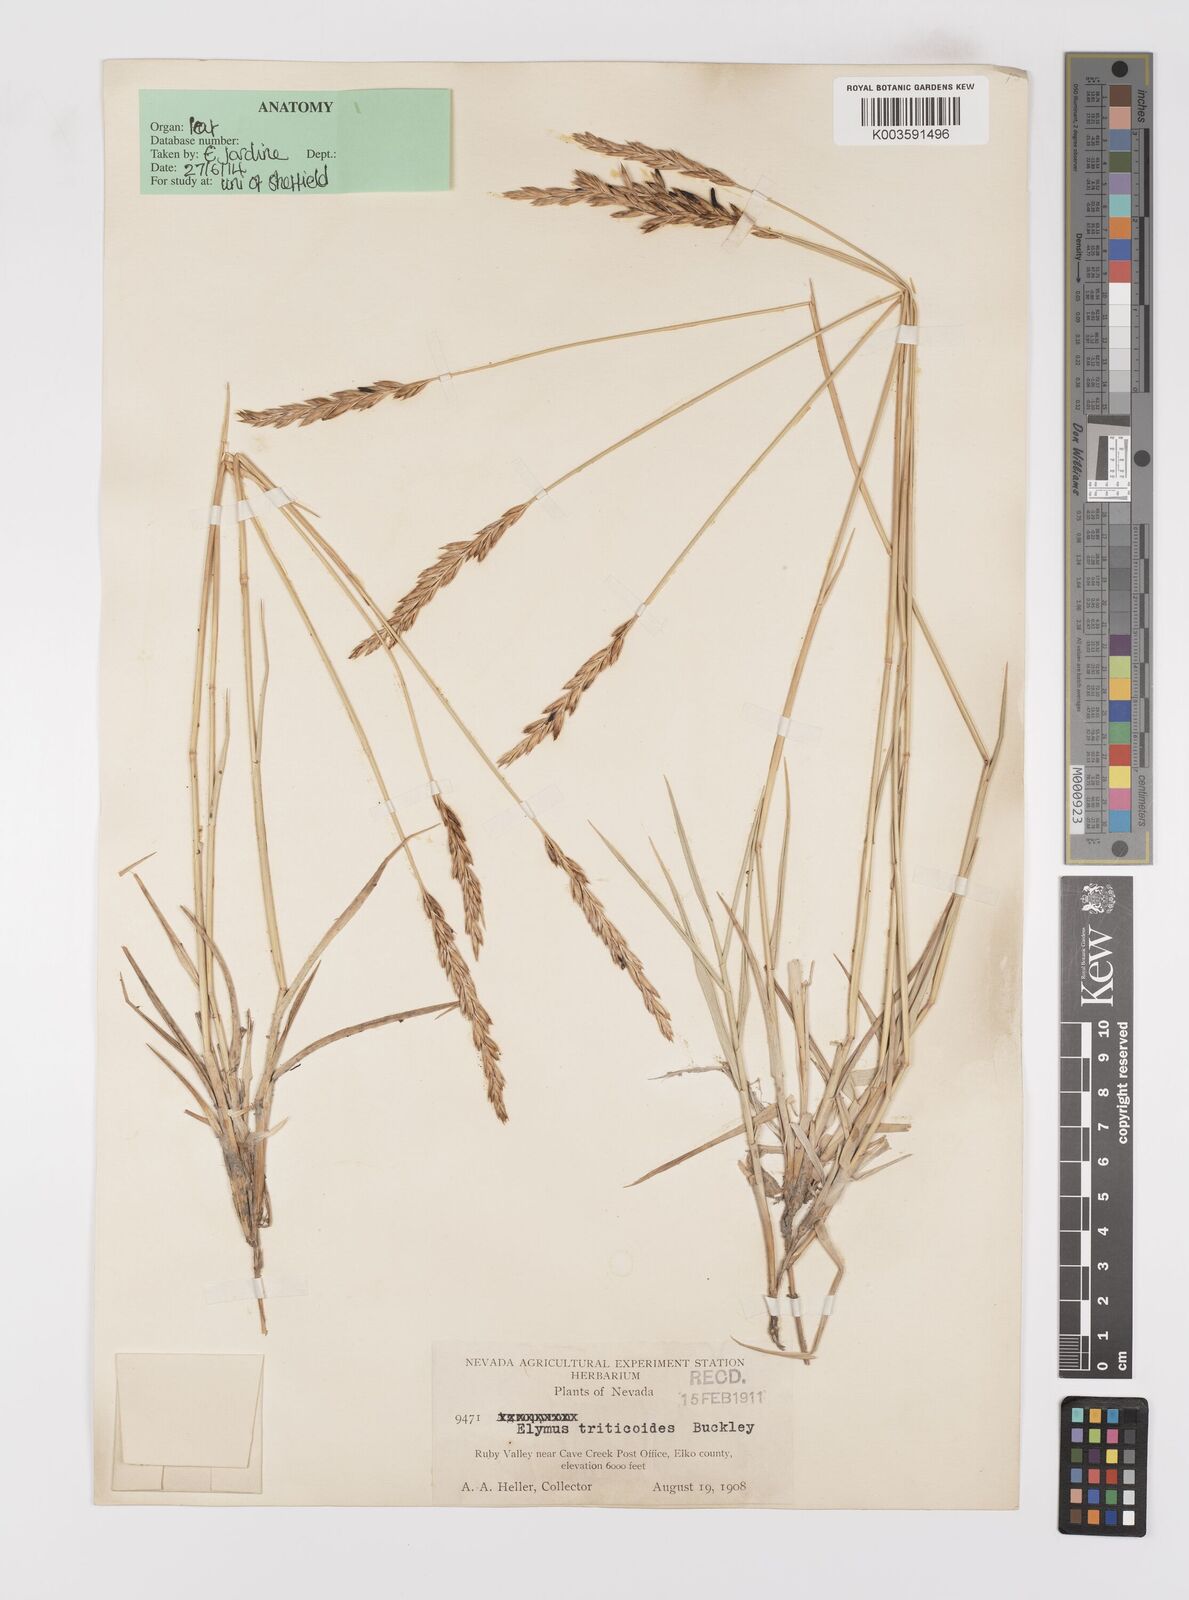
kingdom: Plantae
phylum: Tracheophyta
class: Liliopsida
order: Poales
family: Poaceae
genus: Leymus
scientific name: Leymus triticoides
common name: Beardless wild rye
